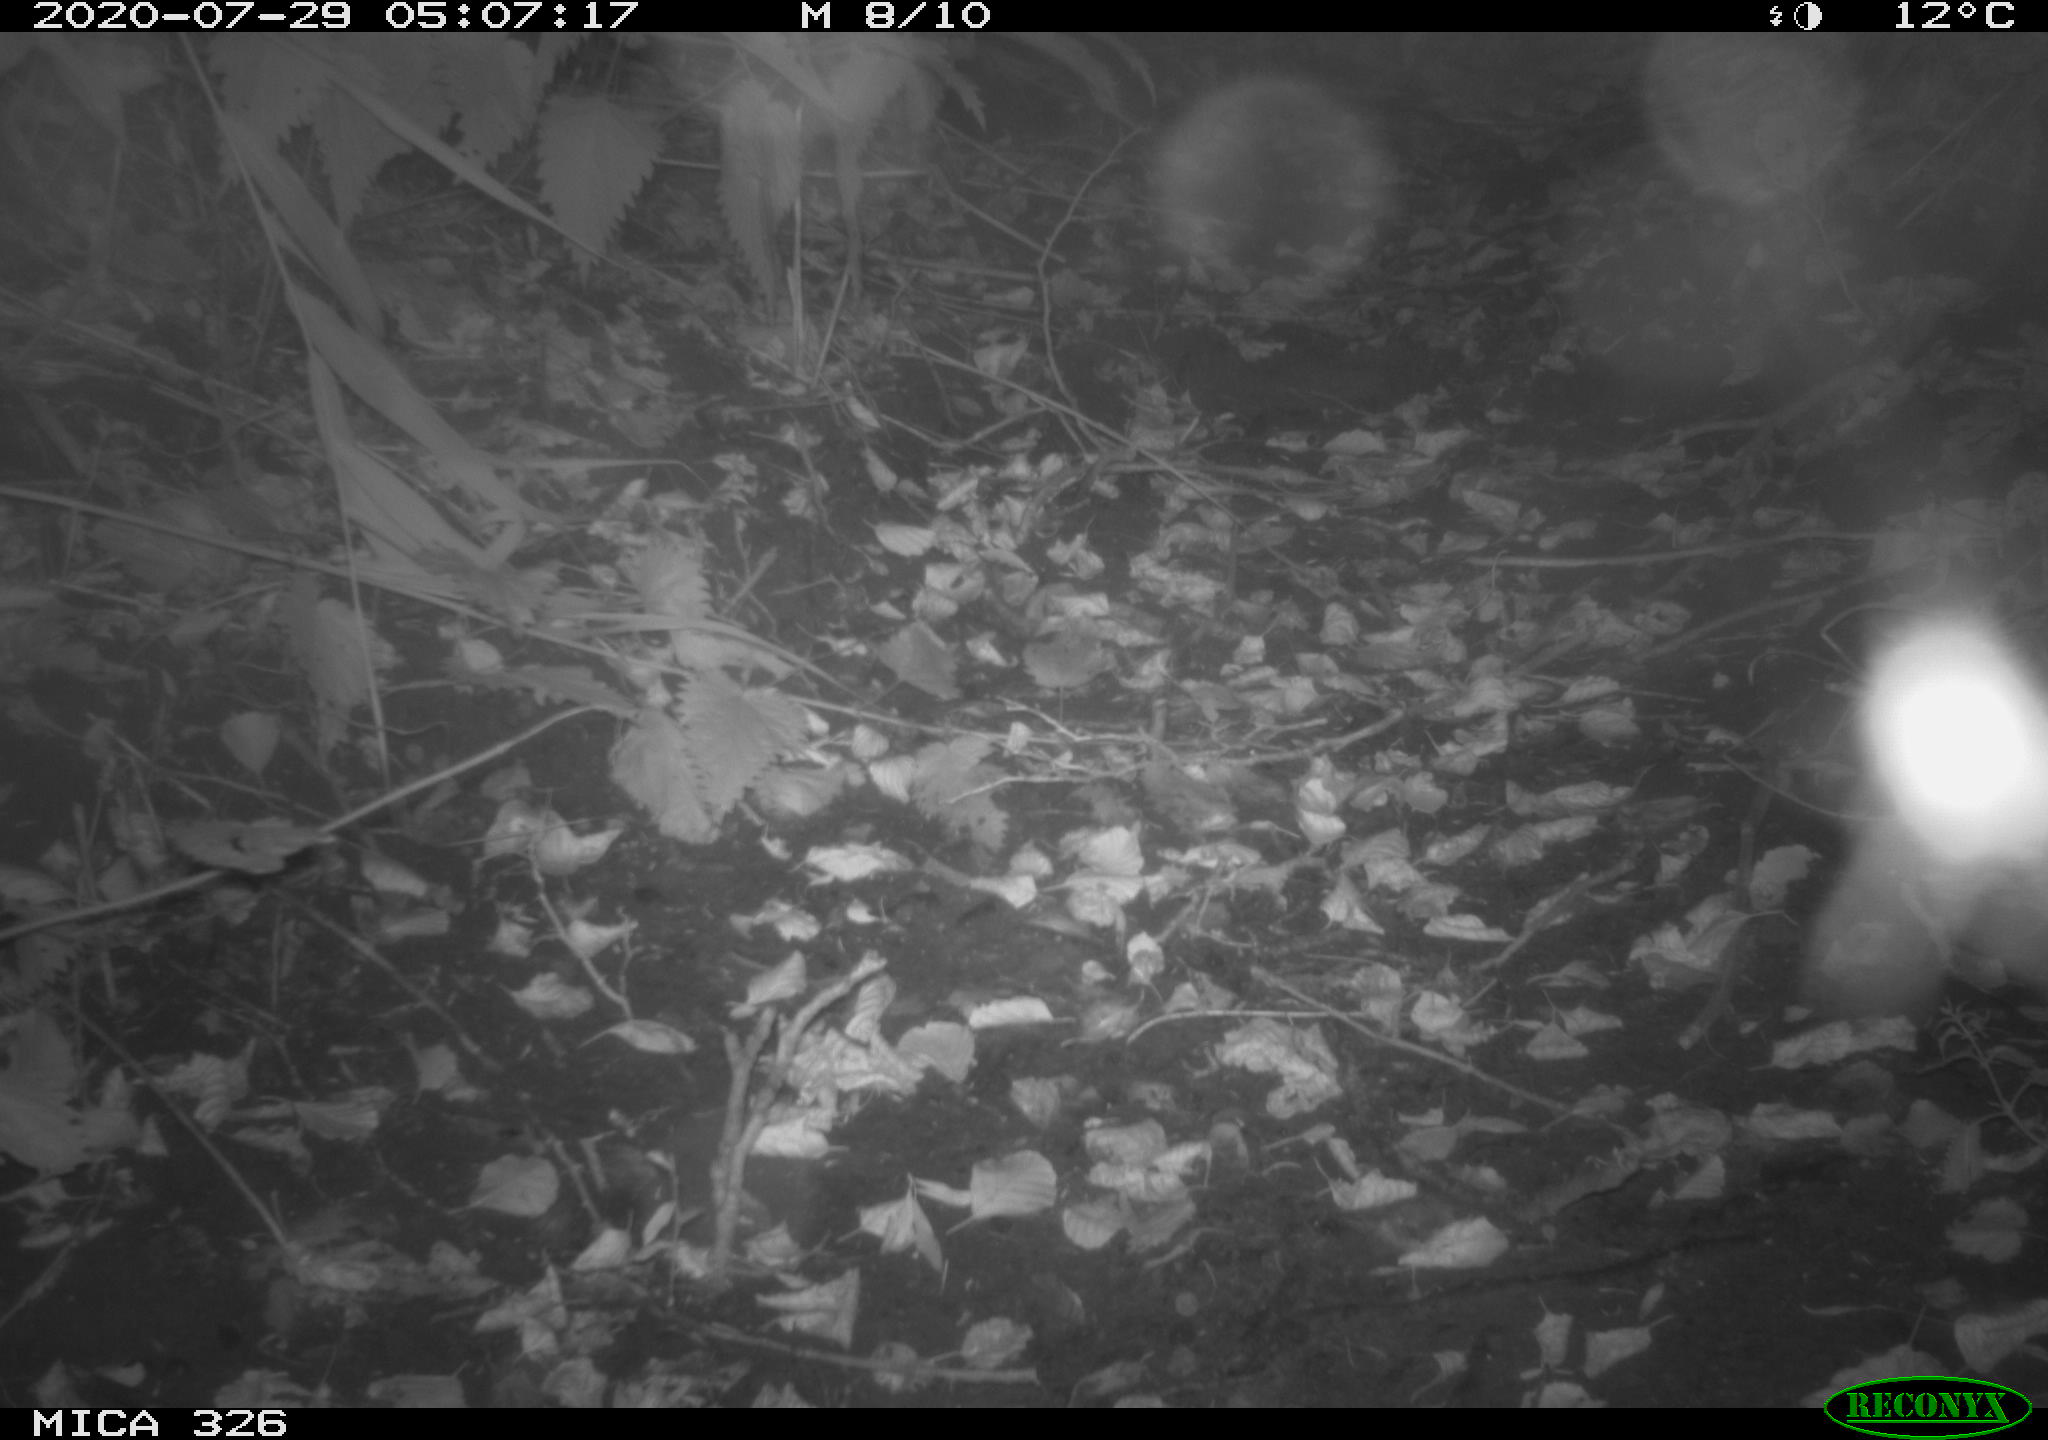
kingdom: Animalia
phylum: Chordata
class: Mammalia
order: Rodentia
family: Muridae
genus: Rattus
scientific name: Rattus norvegicus
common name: Brown rat
